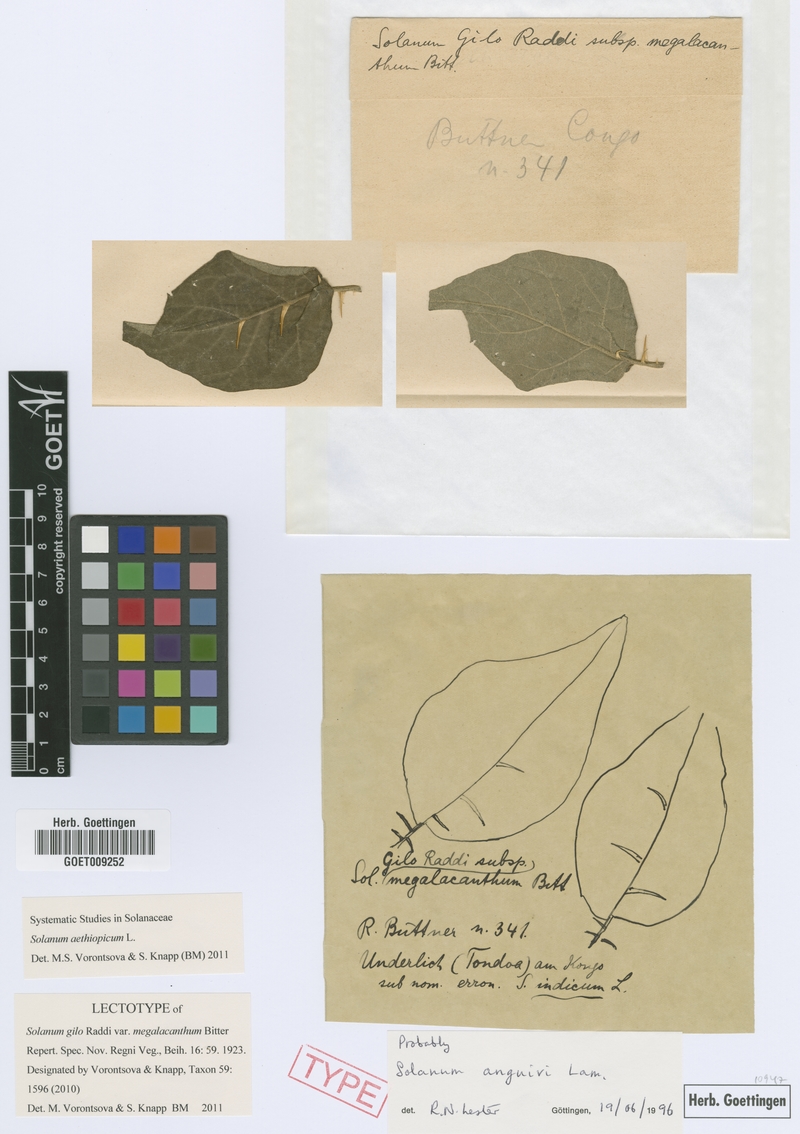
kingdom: Plantae
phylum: Tracheophyta
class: Magnoliopsida
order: Solanales
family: Solanaceae
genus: Solanum
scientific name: Solanum aethiopicum
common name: Gilo
